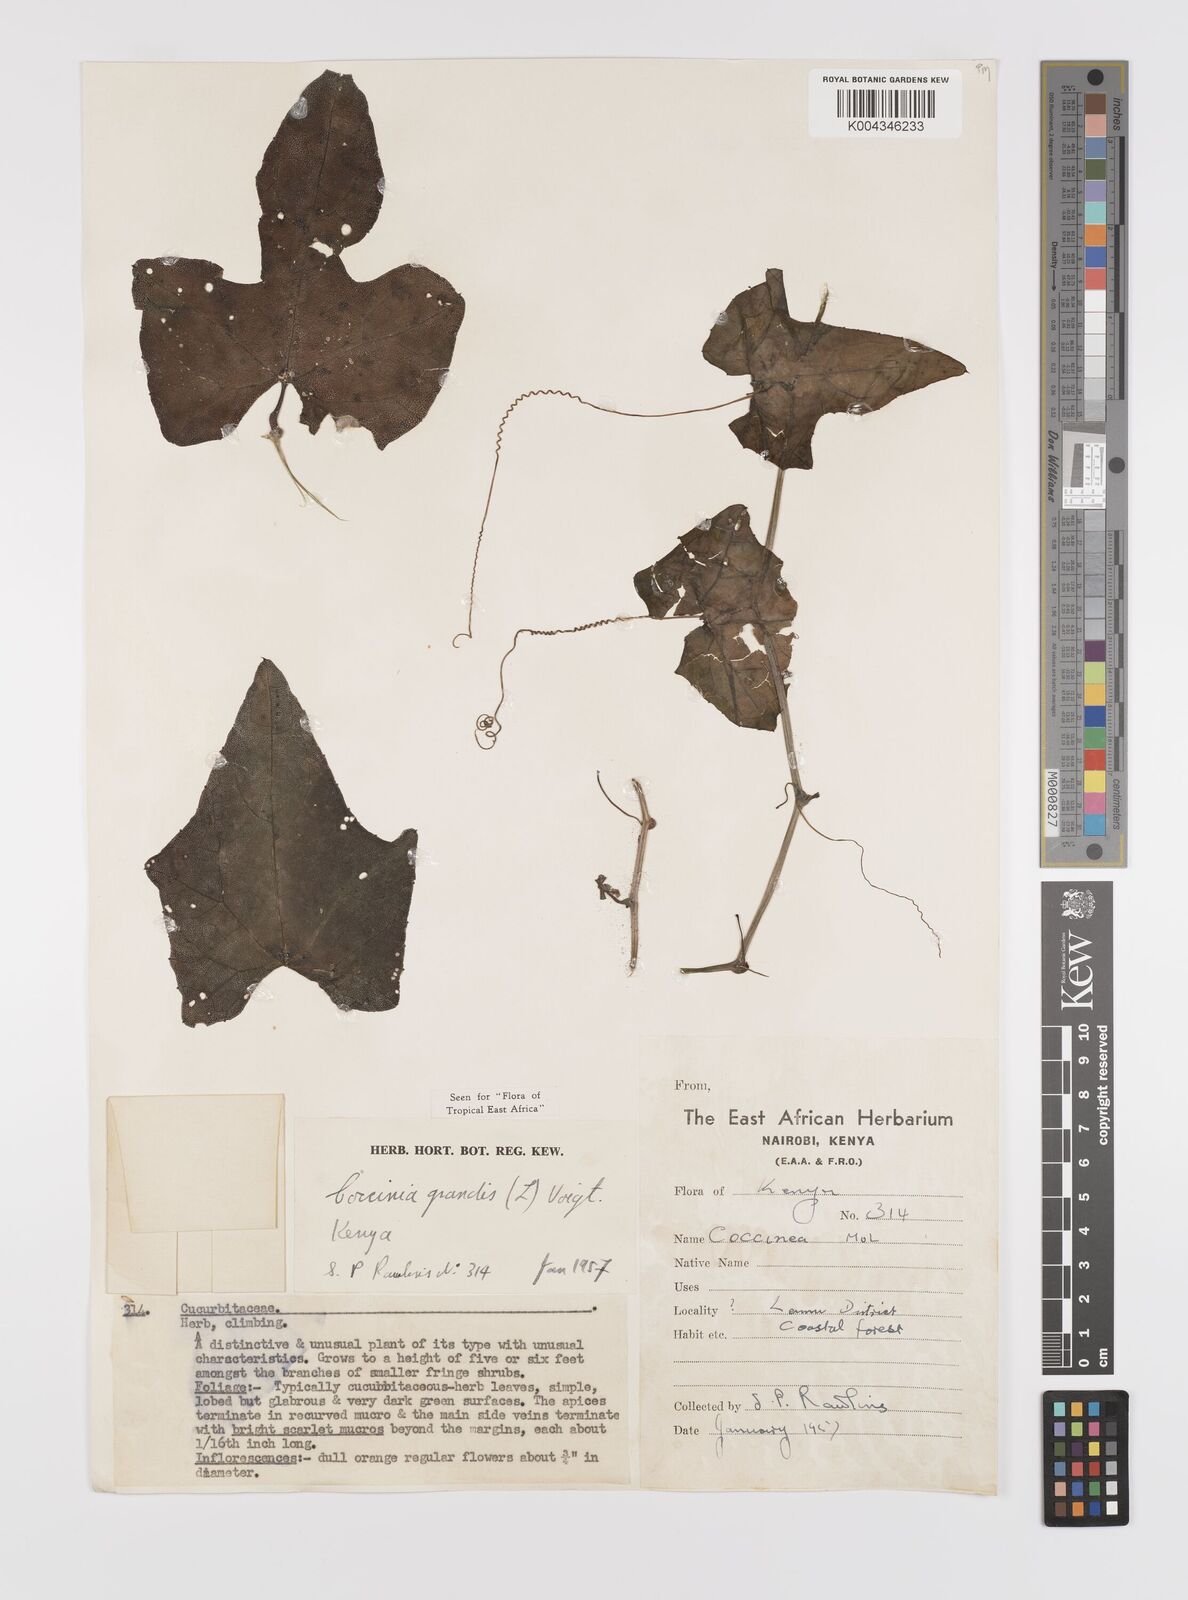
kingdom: Plantae
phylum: Tracheophyta
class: Magnoliopsida
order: Cucurbitales
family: Cucurbitaceae
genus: Coccinia
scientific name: Coccinia grandis
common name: Ivy gourd
